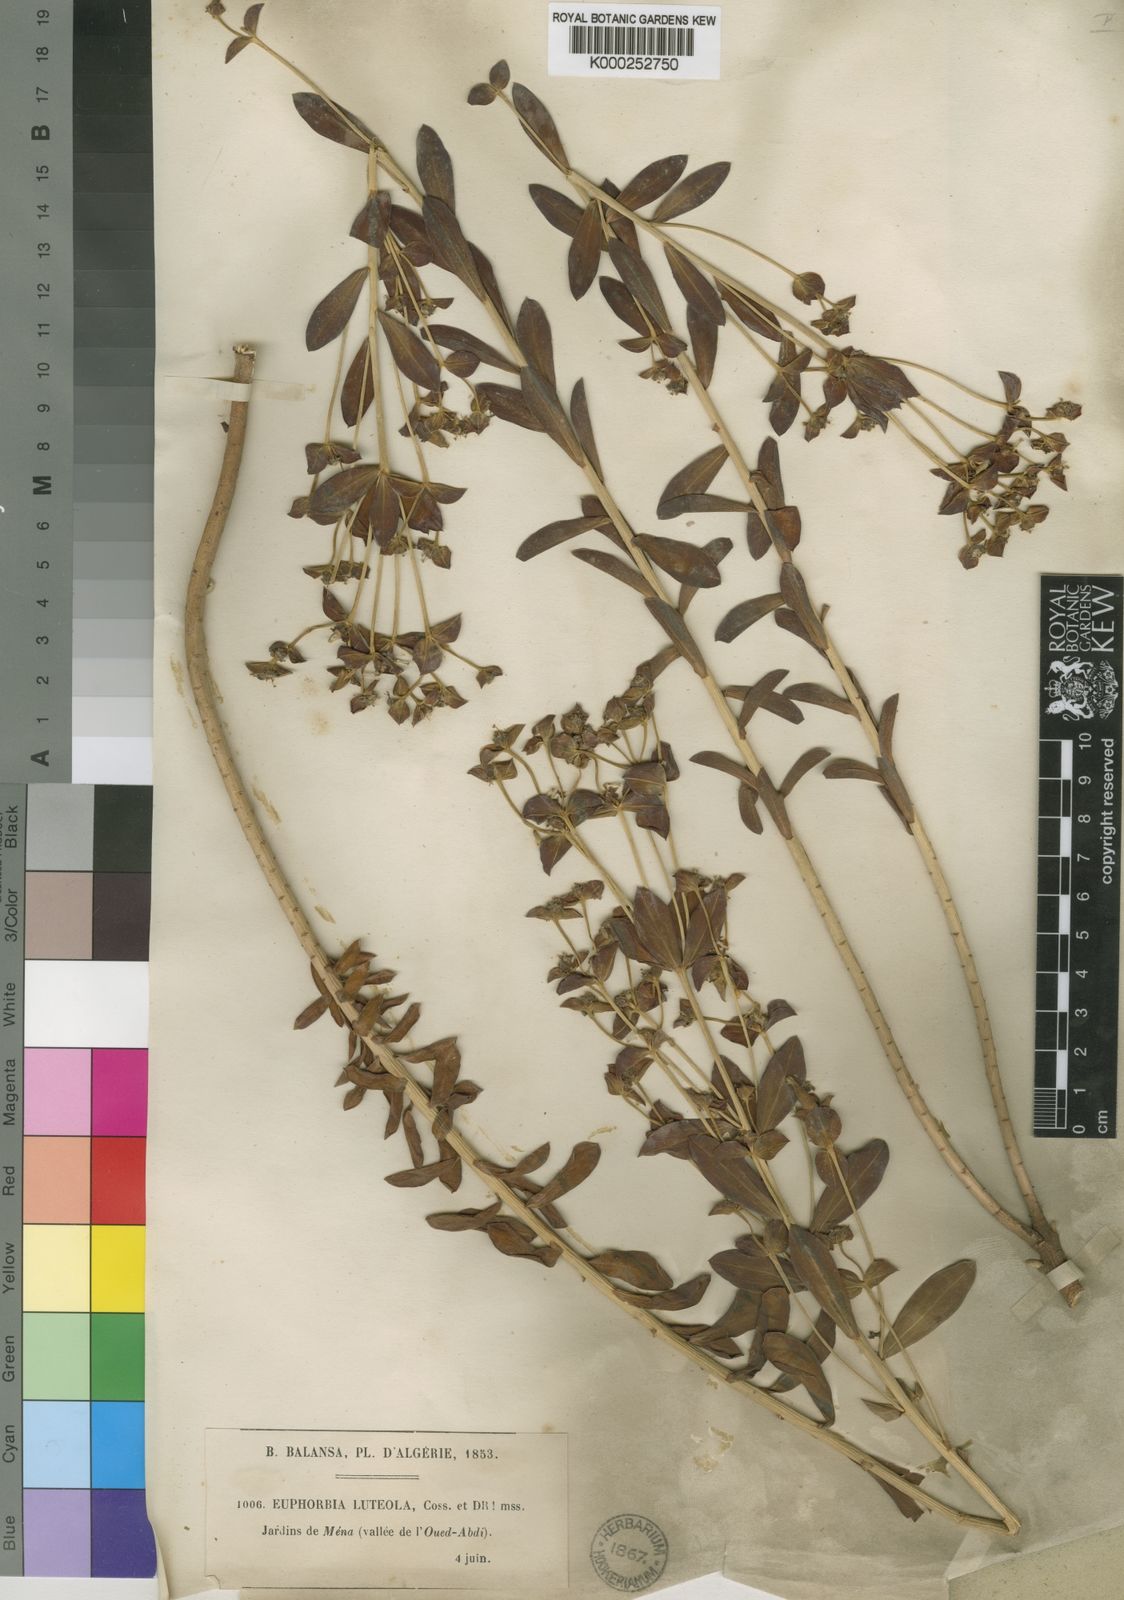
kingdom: Plantae
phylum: Tracheophyta
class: Magnoliopsida
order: Malpighiales
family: Euphorbiaceae
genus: Euphorbia
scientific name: Euphorbia nicaeensis
